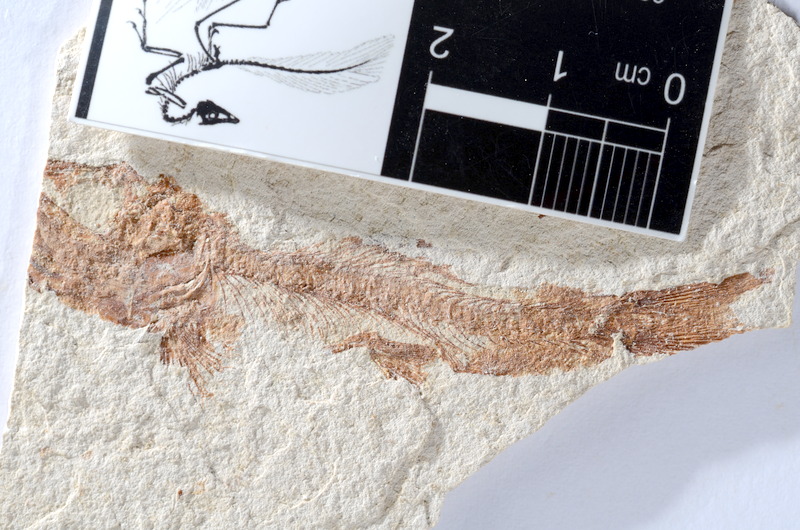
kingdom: Animalia
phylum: Chordata
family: Ascalaboidae
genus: Tharsis
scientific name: Tharsis dubius
